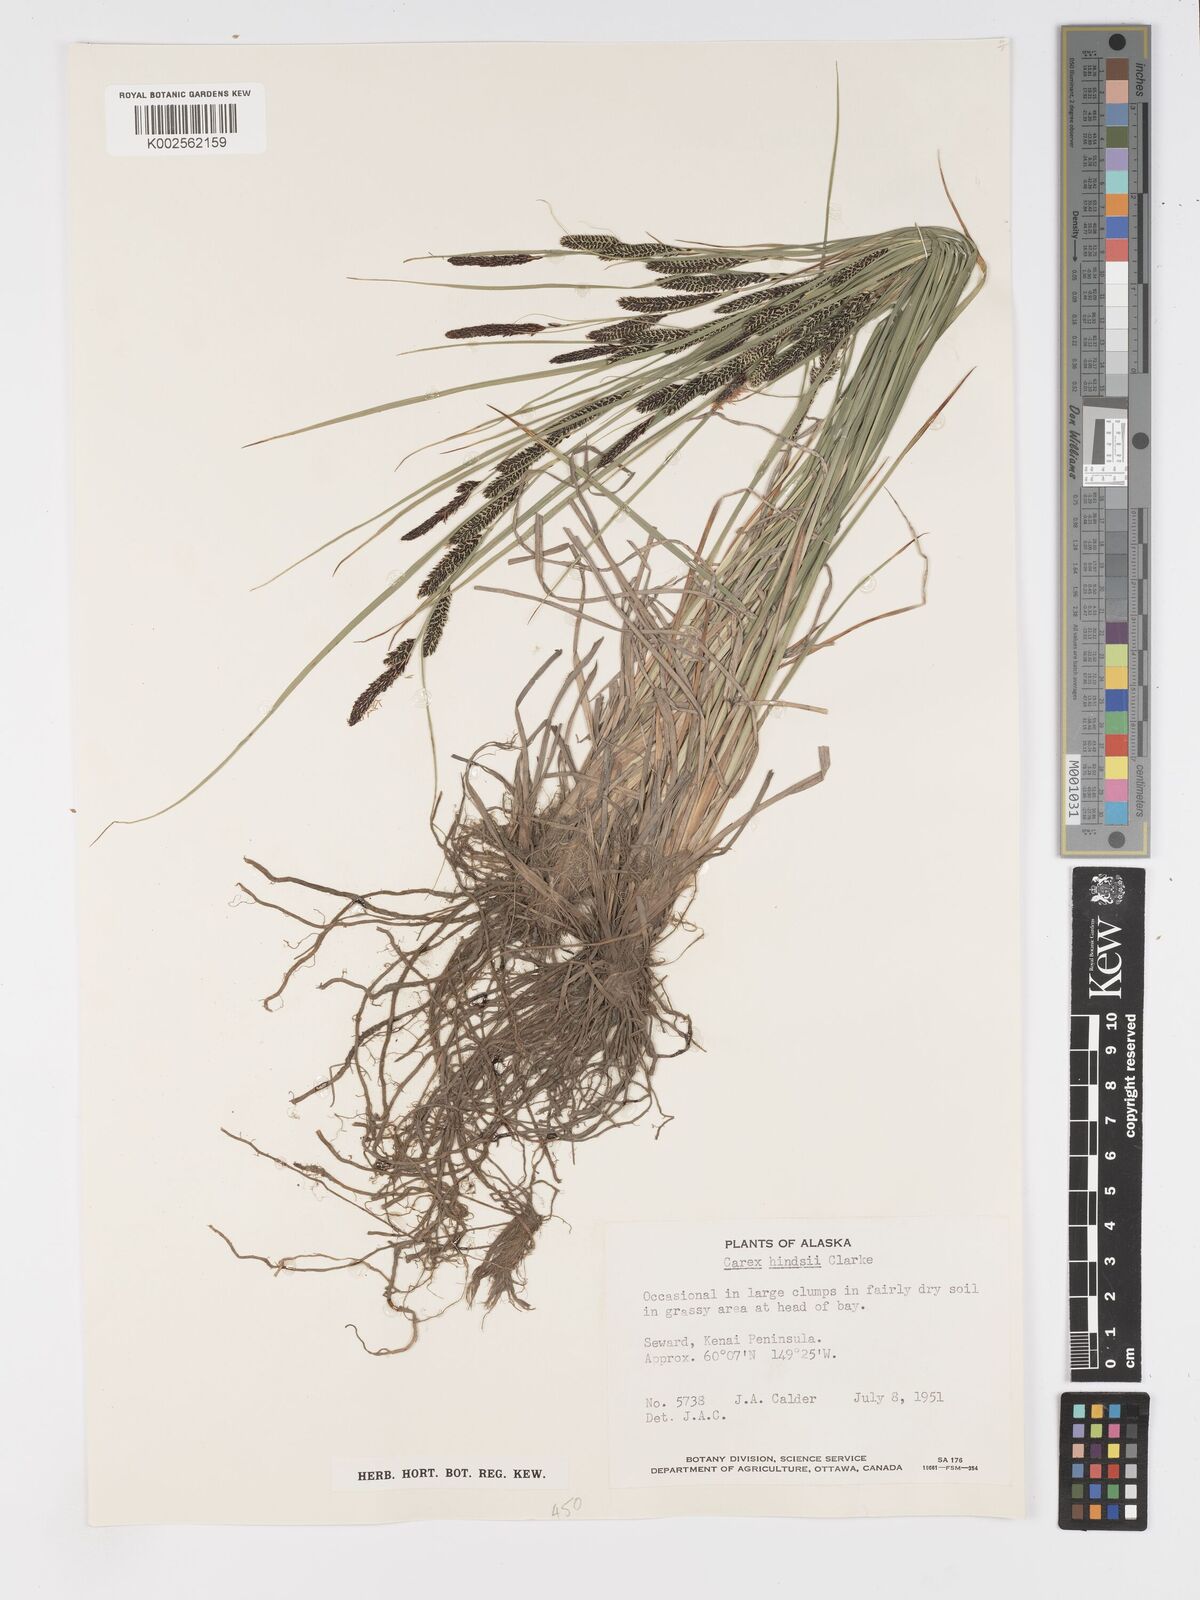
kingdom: Plantae
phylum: Tracheophyta
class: Liliopsida
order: Poales
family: Cyperaceae
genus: Carex
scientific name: Carex kelloggii
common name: Kellogg's sedge
